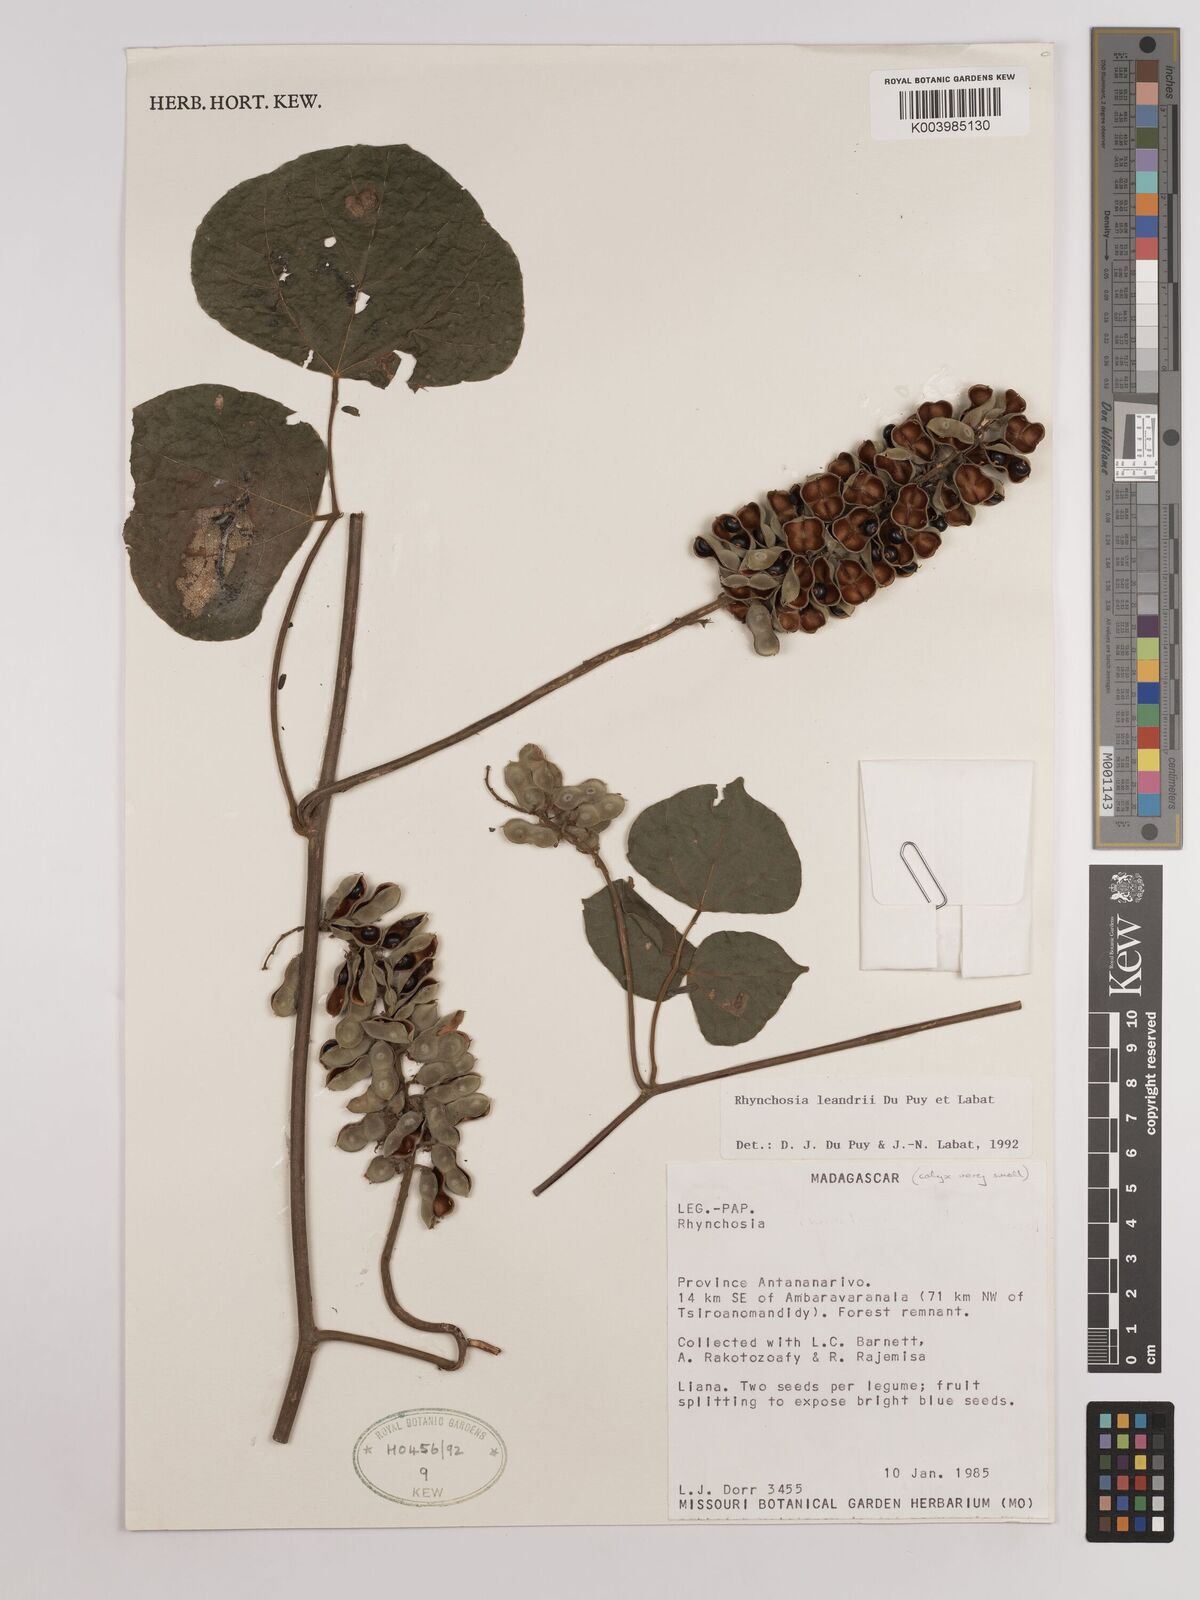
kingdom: Plantae
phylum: Tracheophyta
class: Magnoliopsida
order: Fabales
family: Fabaceae
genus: Rhynchosia
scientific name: Rhynchosia leandrii
